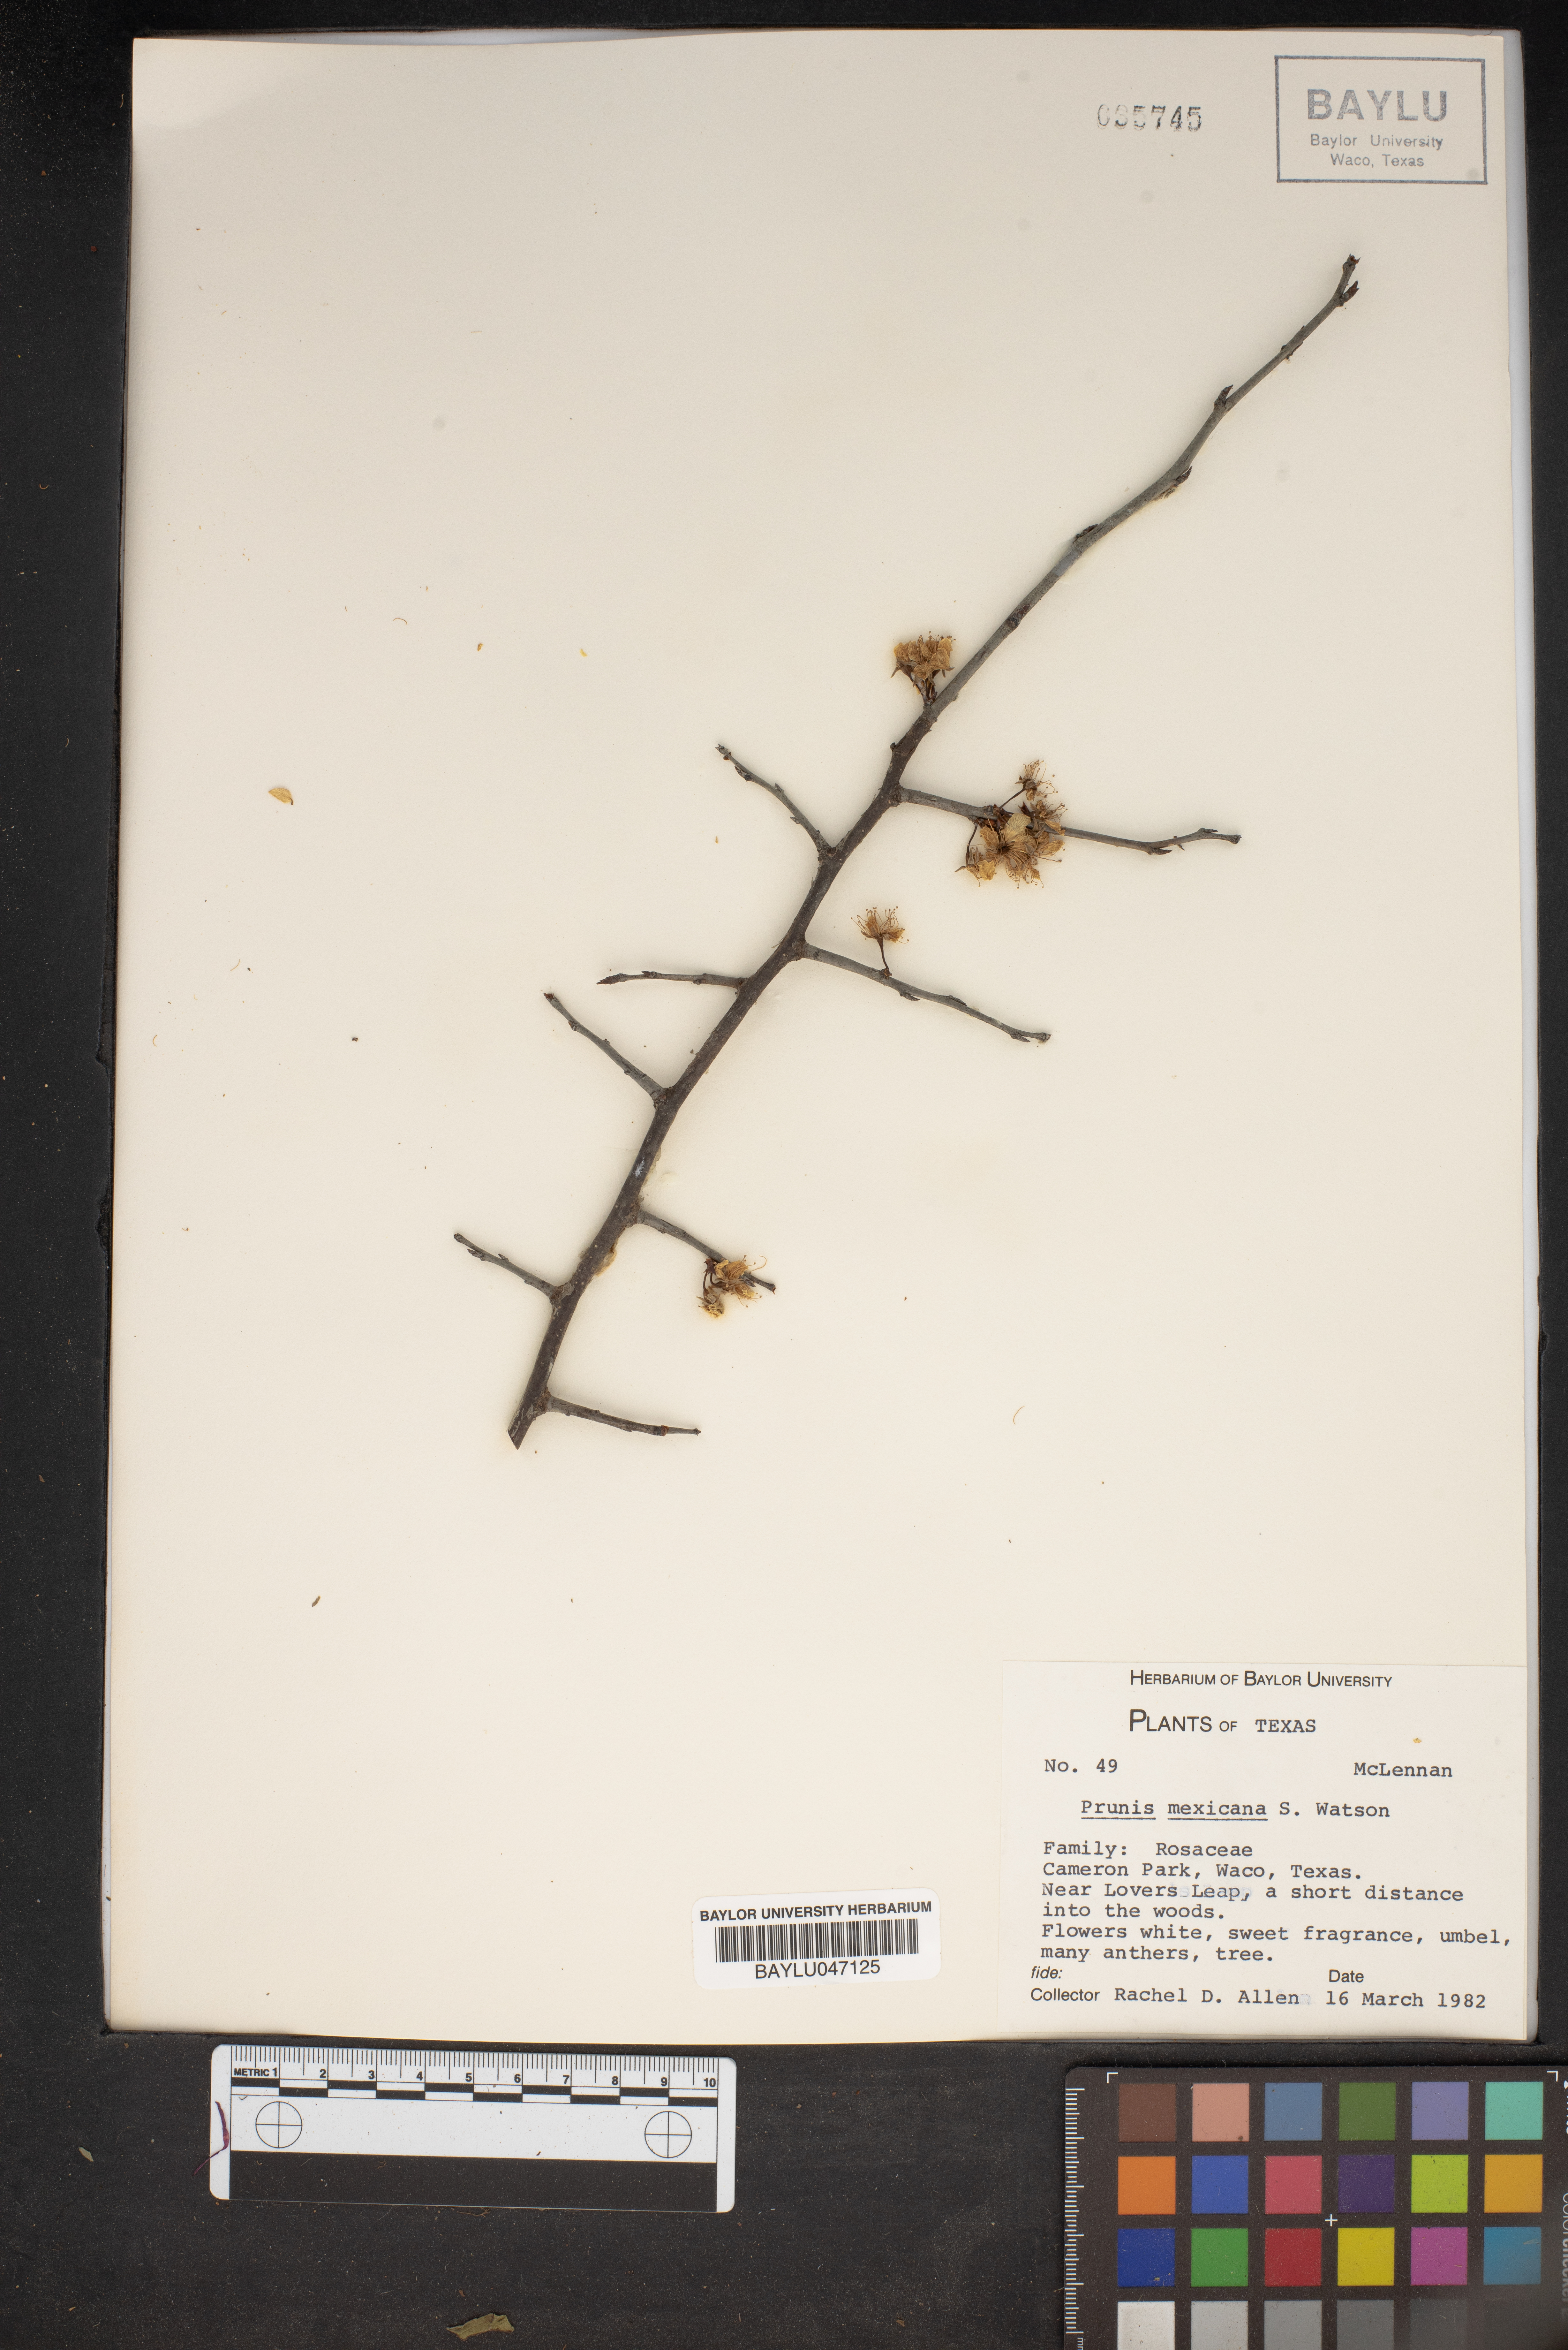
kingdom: Plantae
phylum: Tracheophyta
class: Magnoliopsida
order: Rosales
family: Rosaceae
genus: Prunus
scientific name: Prunus mexicana
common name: Mexican plum
